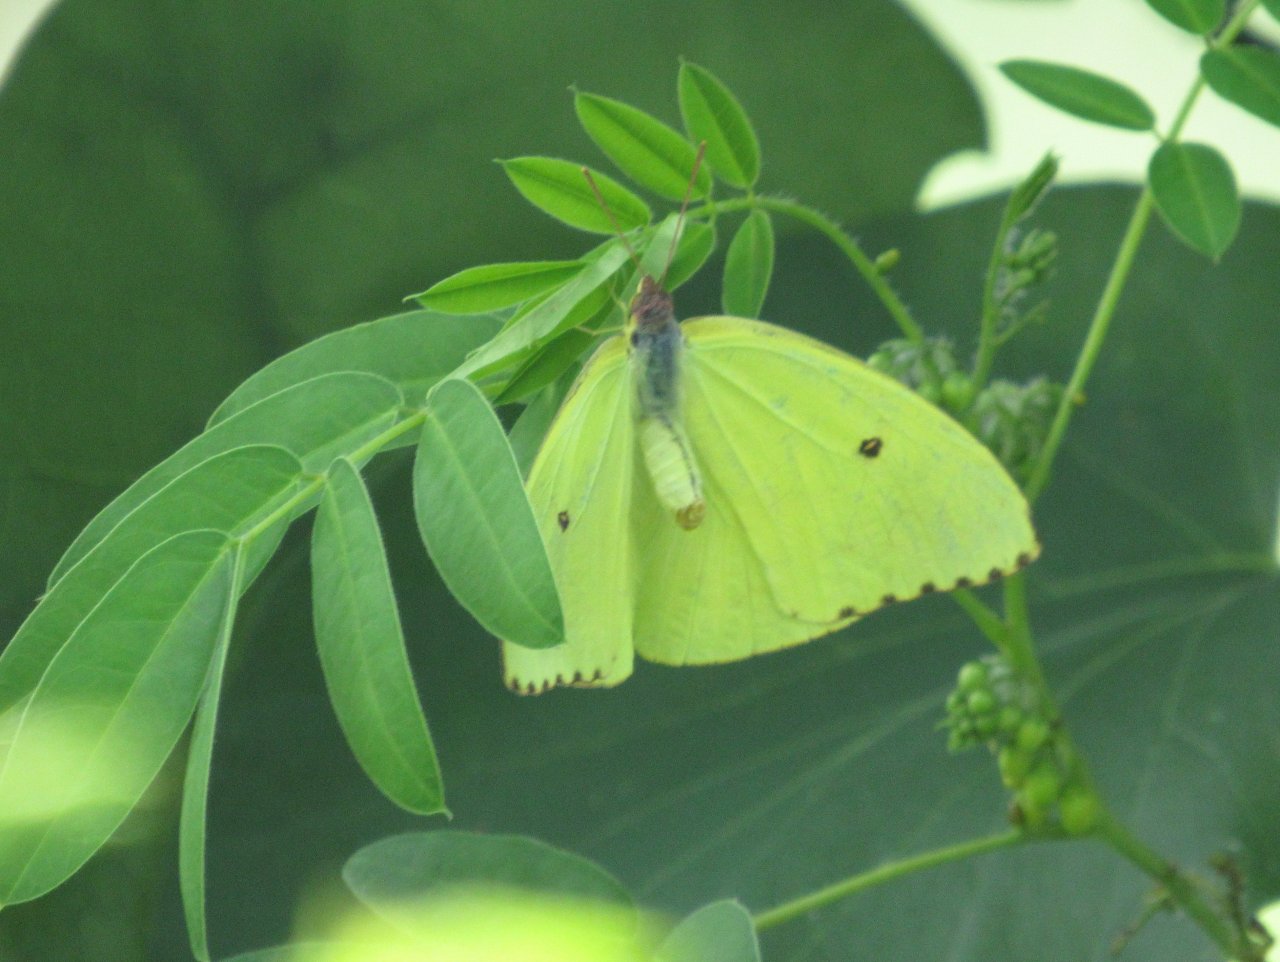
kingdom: Animalia
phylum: Arthropoda
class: Insecta
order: Lepidoptera
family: Pieridae
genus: Phoebis
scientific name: Phoebis sennae
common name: Cloudless Sulphur
